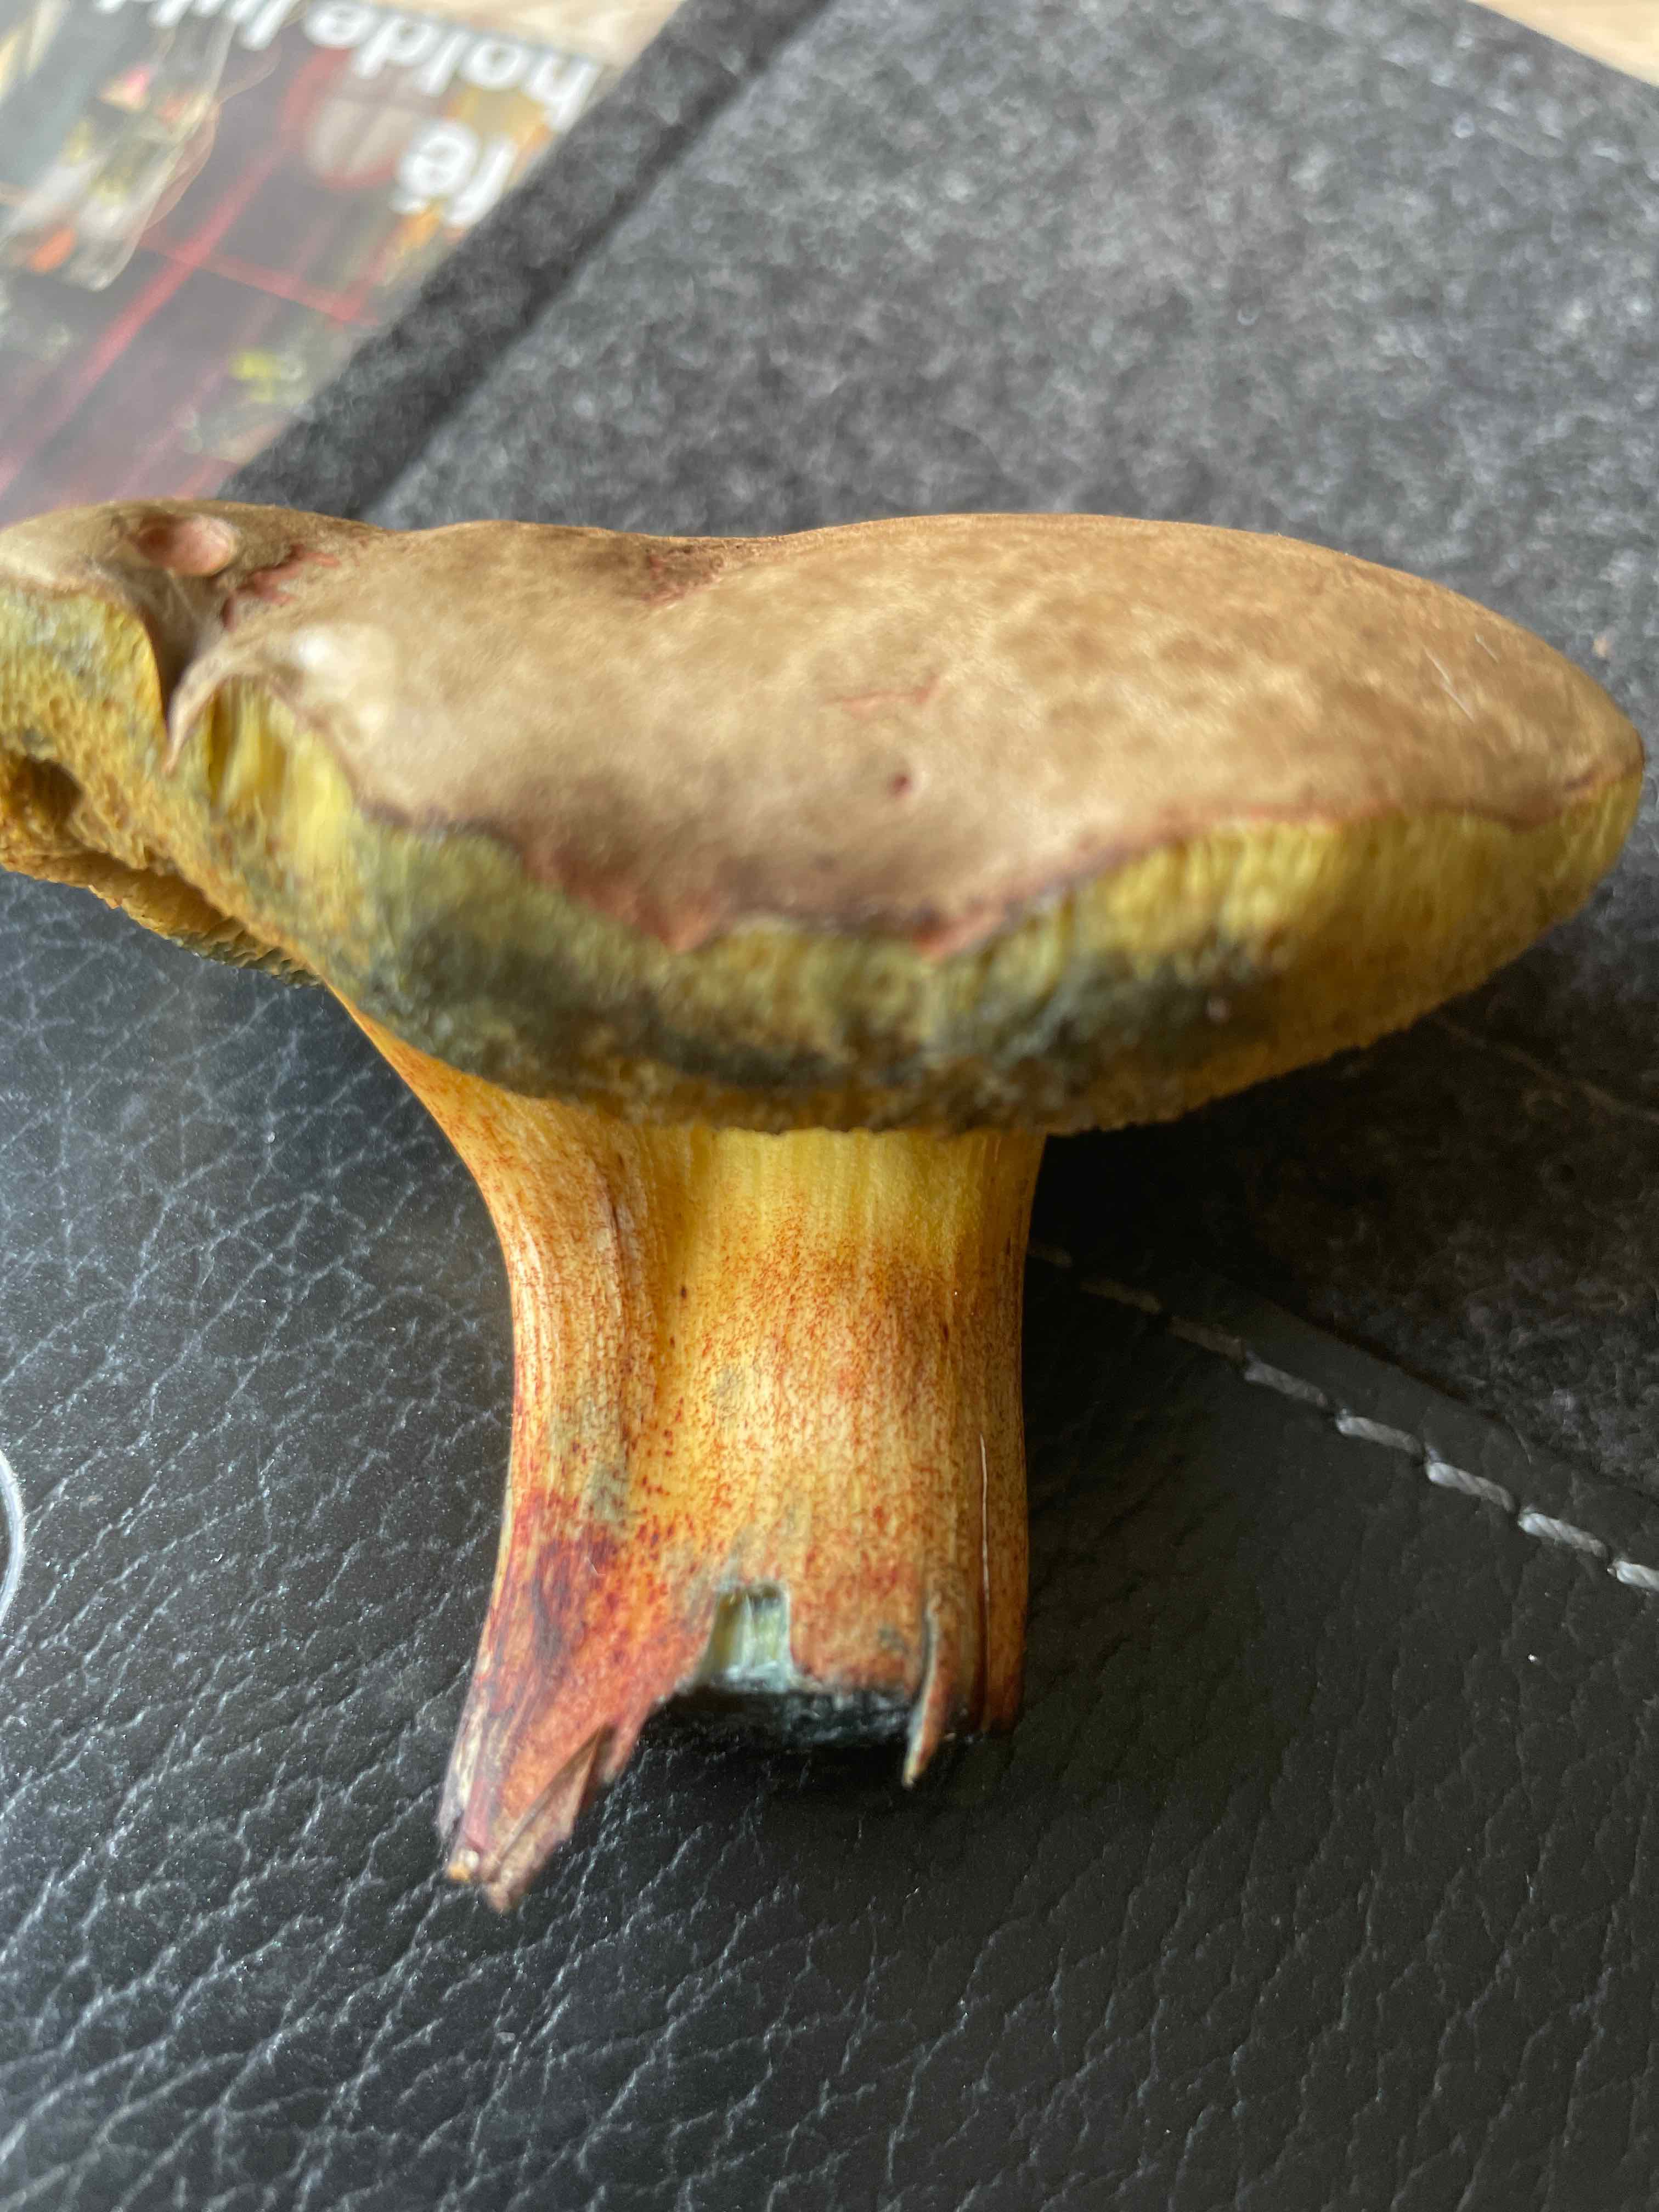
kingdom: Fungi
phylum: Basidiomycota
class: Agaricomycetes
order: Boletales
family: Boletaceae
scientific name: Boletaceae
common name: rørhatfamilien
